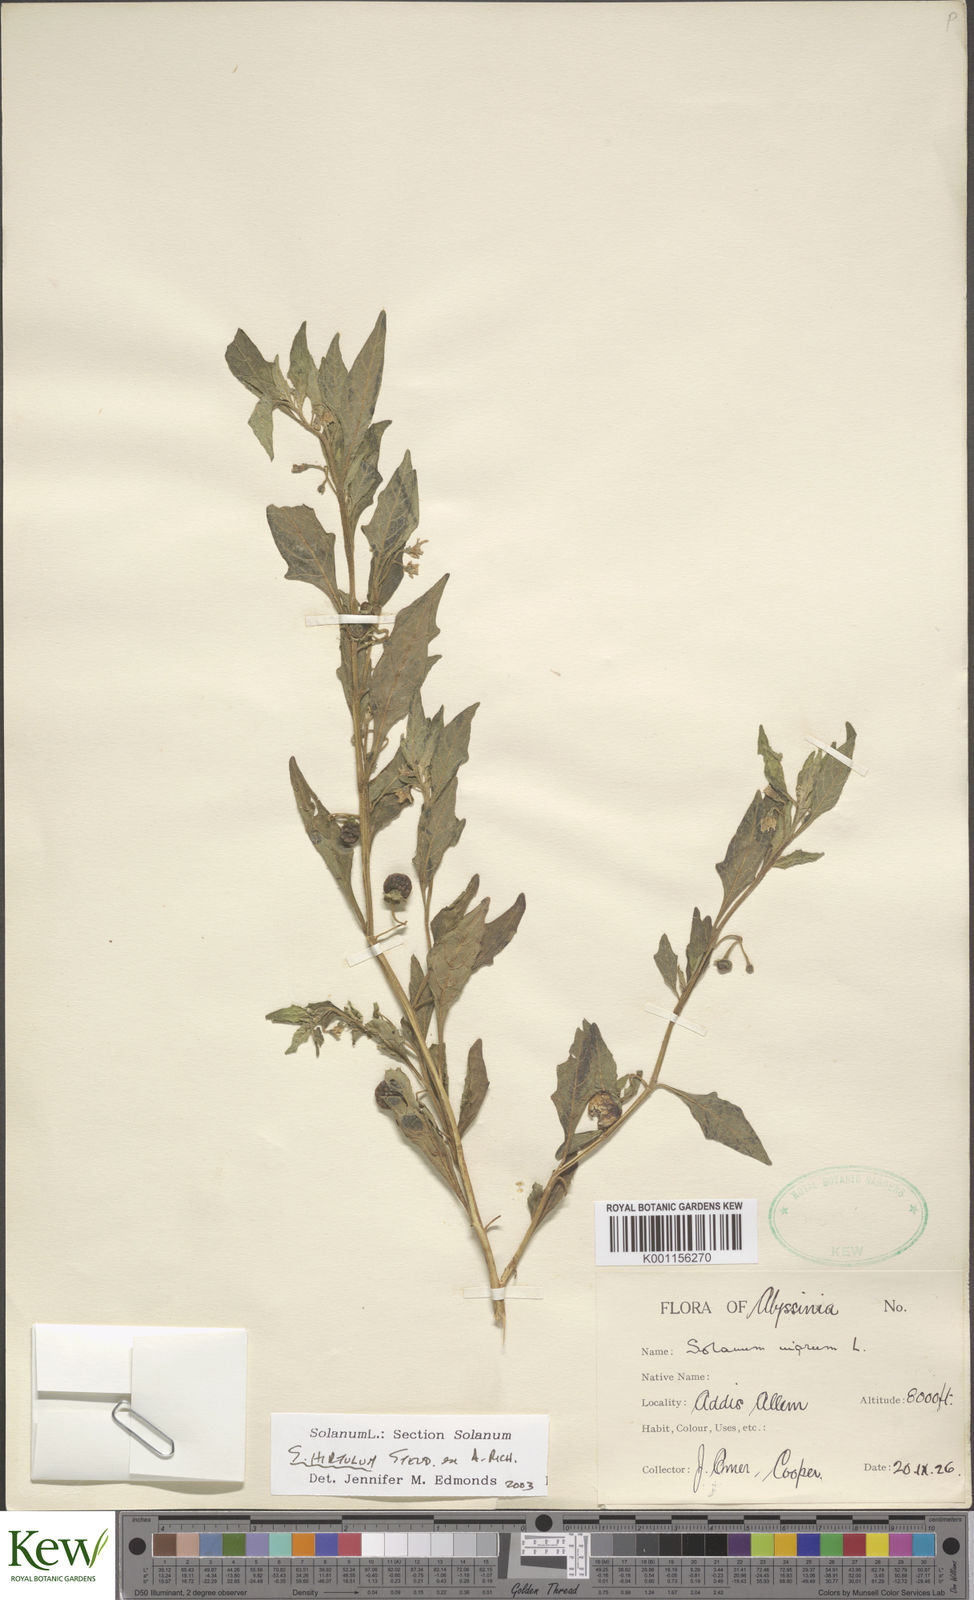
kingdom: Plantae
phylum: Tracheophyta
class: Magnoliopsida
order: Solanales
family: Solanaceae
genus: Solanum
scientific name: Solanum hirtulum
